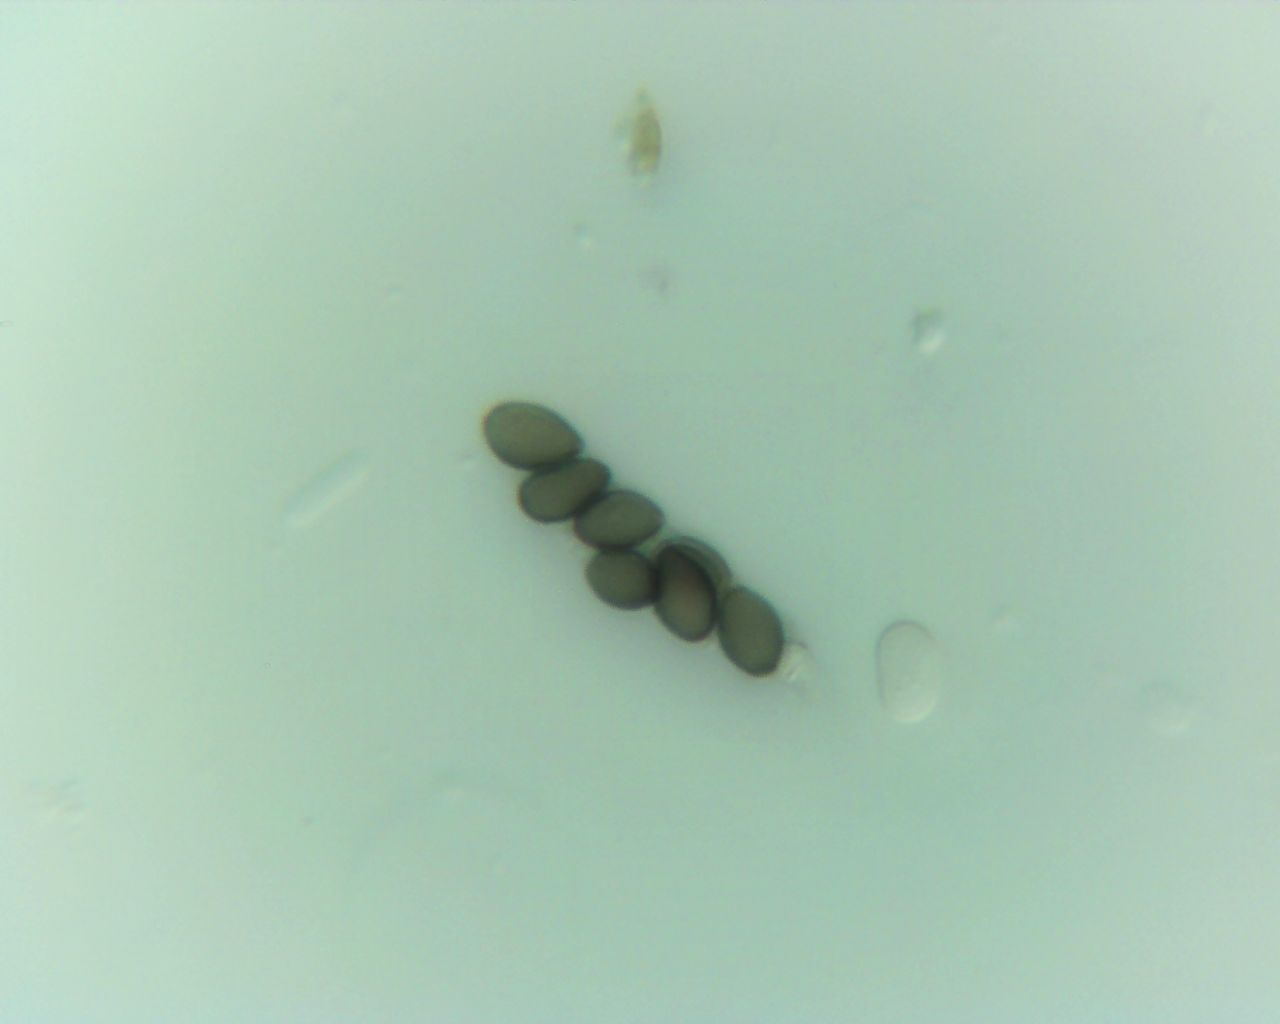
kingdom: Fungi
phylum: Ascomycota
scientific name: Ascomycota
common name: sæksvampe
